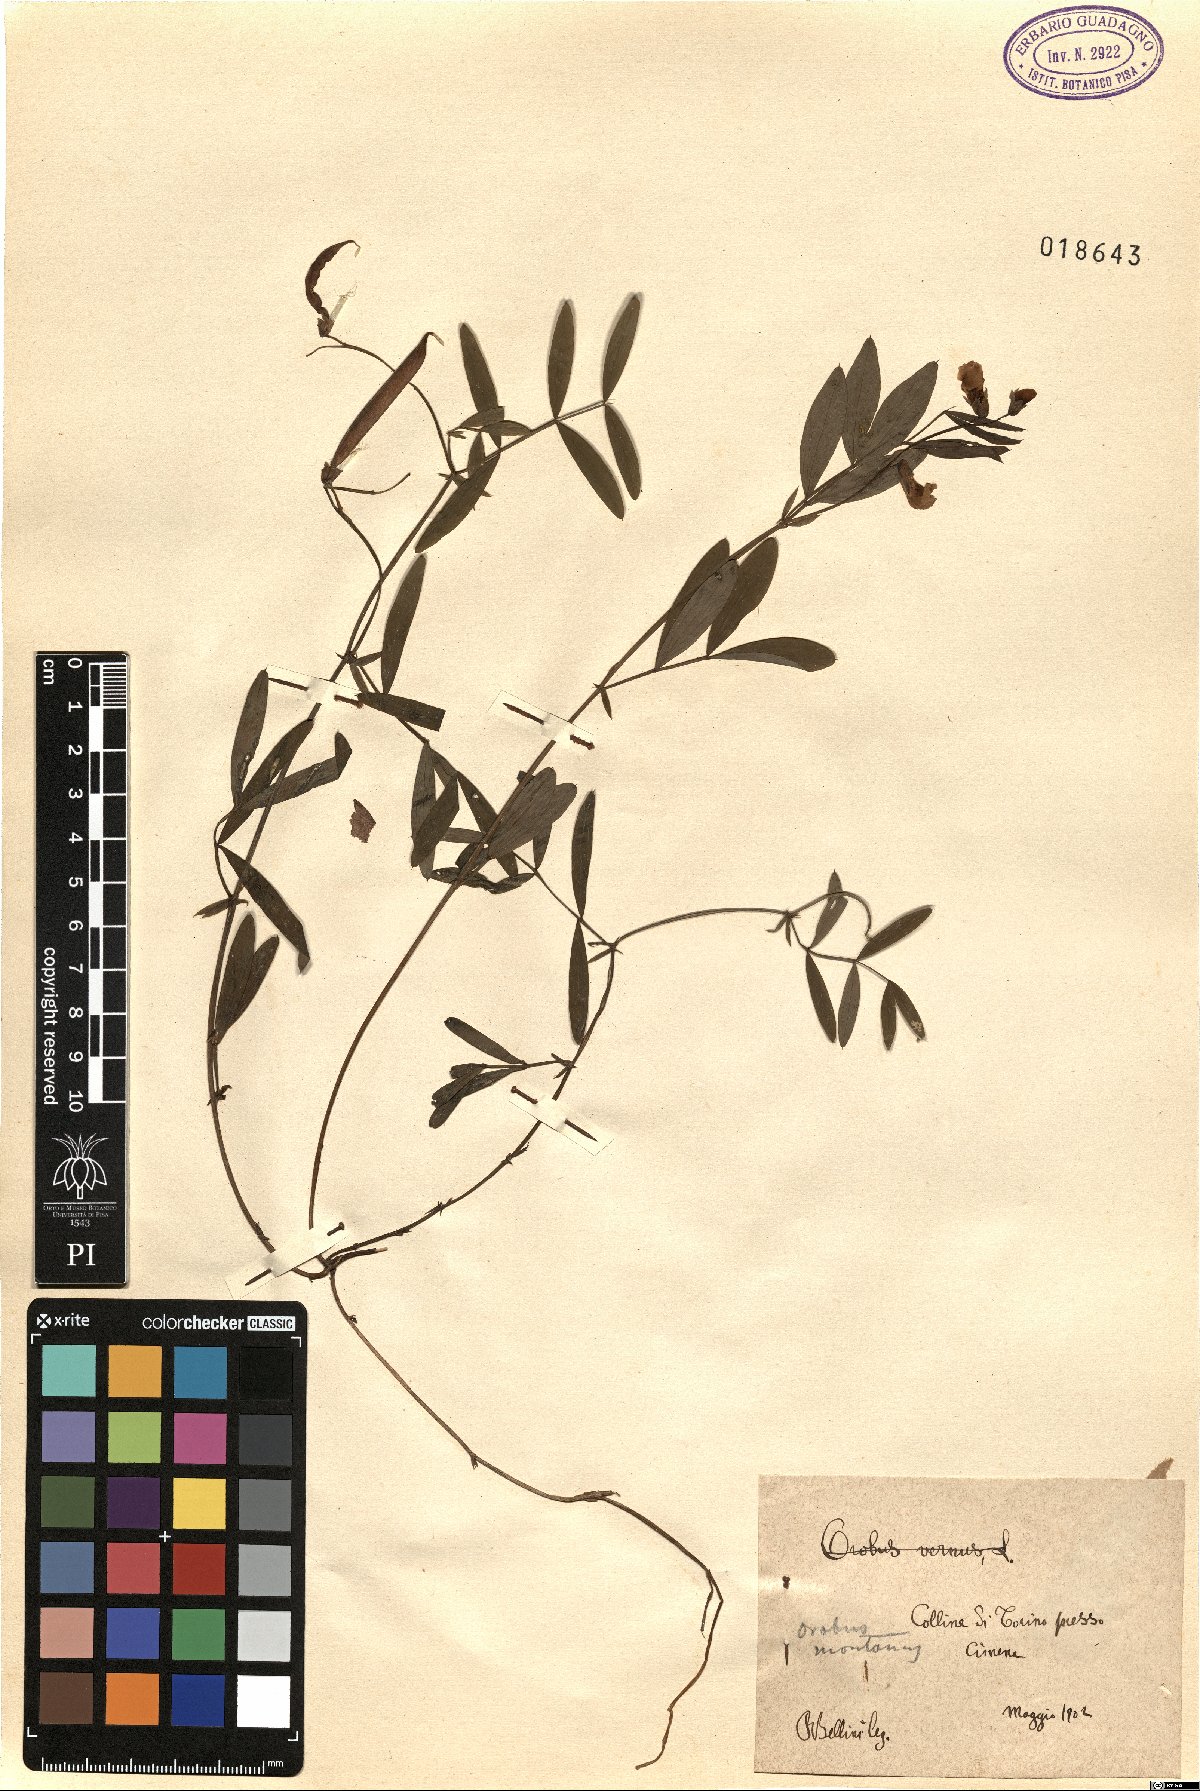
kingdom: Plantae
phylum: Tracheophyta
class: Magnoliopsida
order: Fabales
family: Fabaceae
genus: Lathyrus
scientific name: Lathyrus laevigatus
